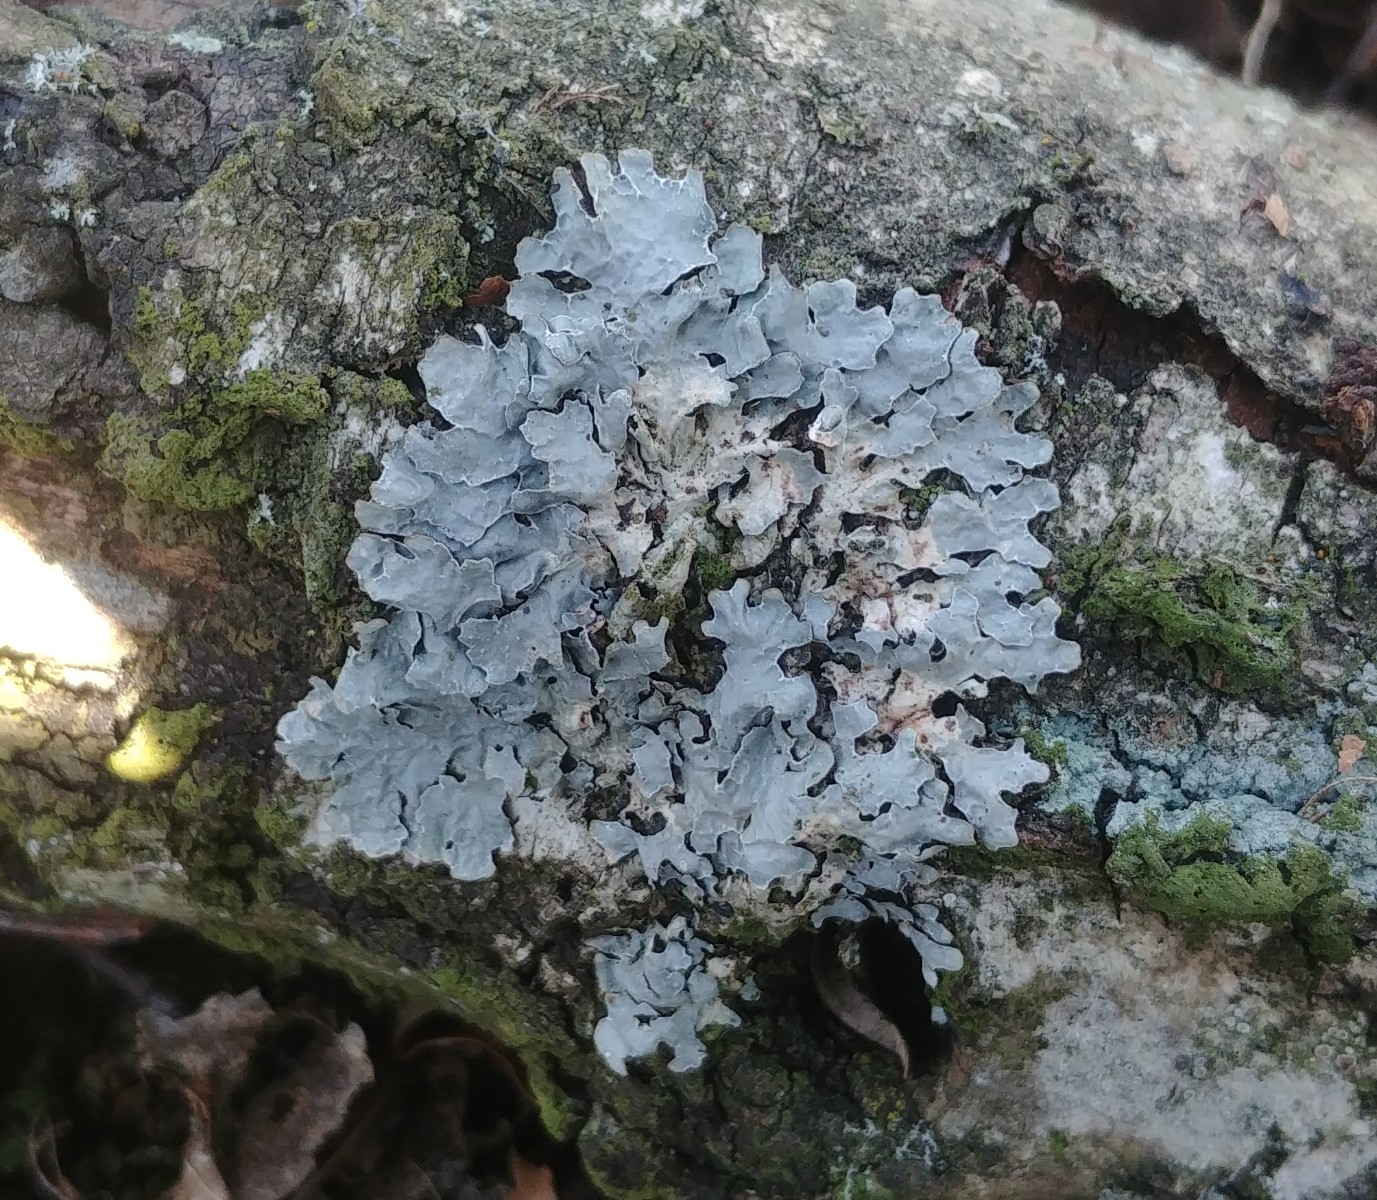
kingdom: Fungi
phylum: Ascomycota
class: Lecanoromycetes
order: Lecanorales
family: Parmeliaceae
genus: Parmelia
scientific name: Parmelia sulcata
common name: rynket skållav
